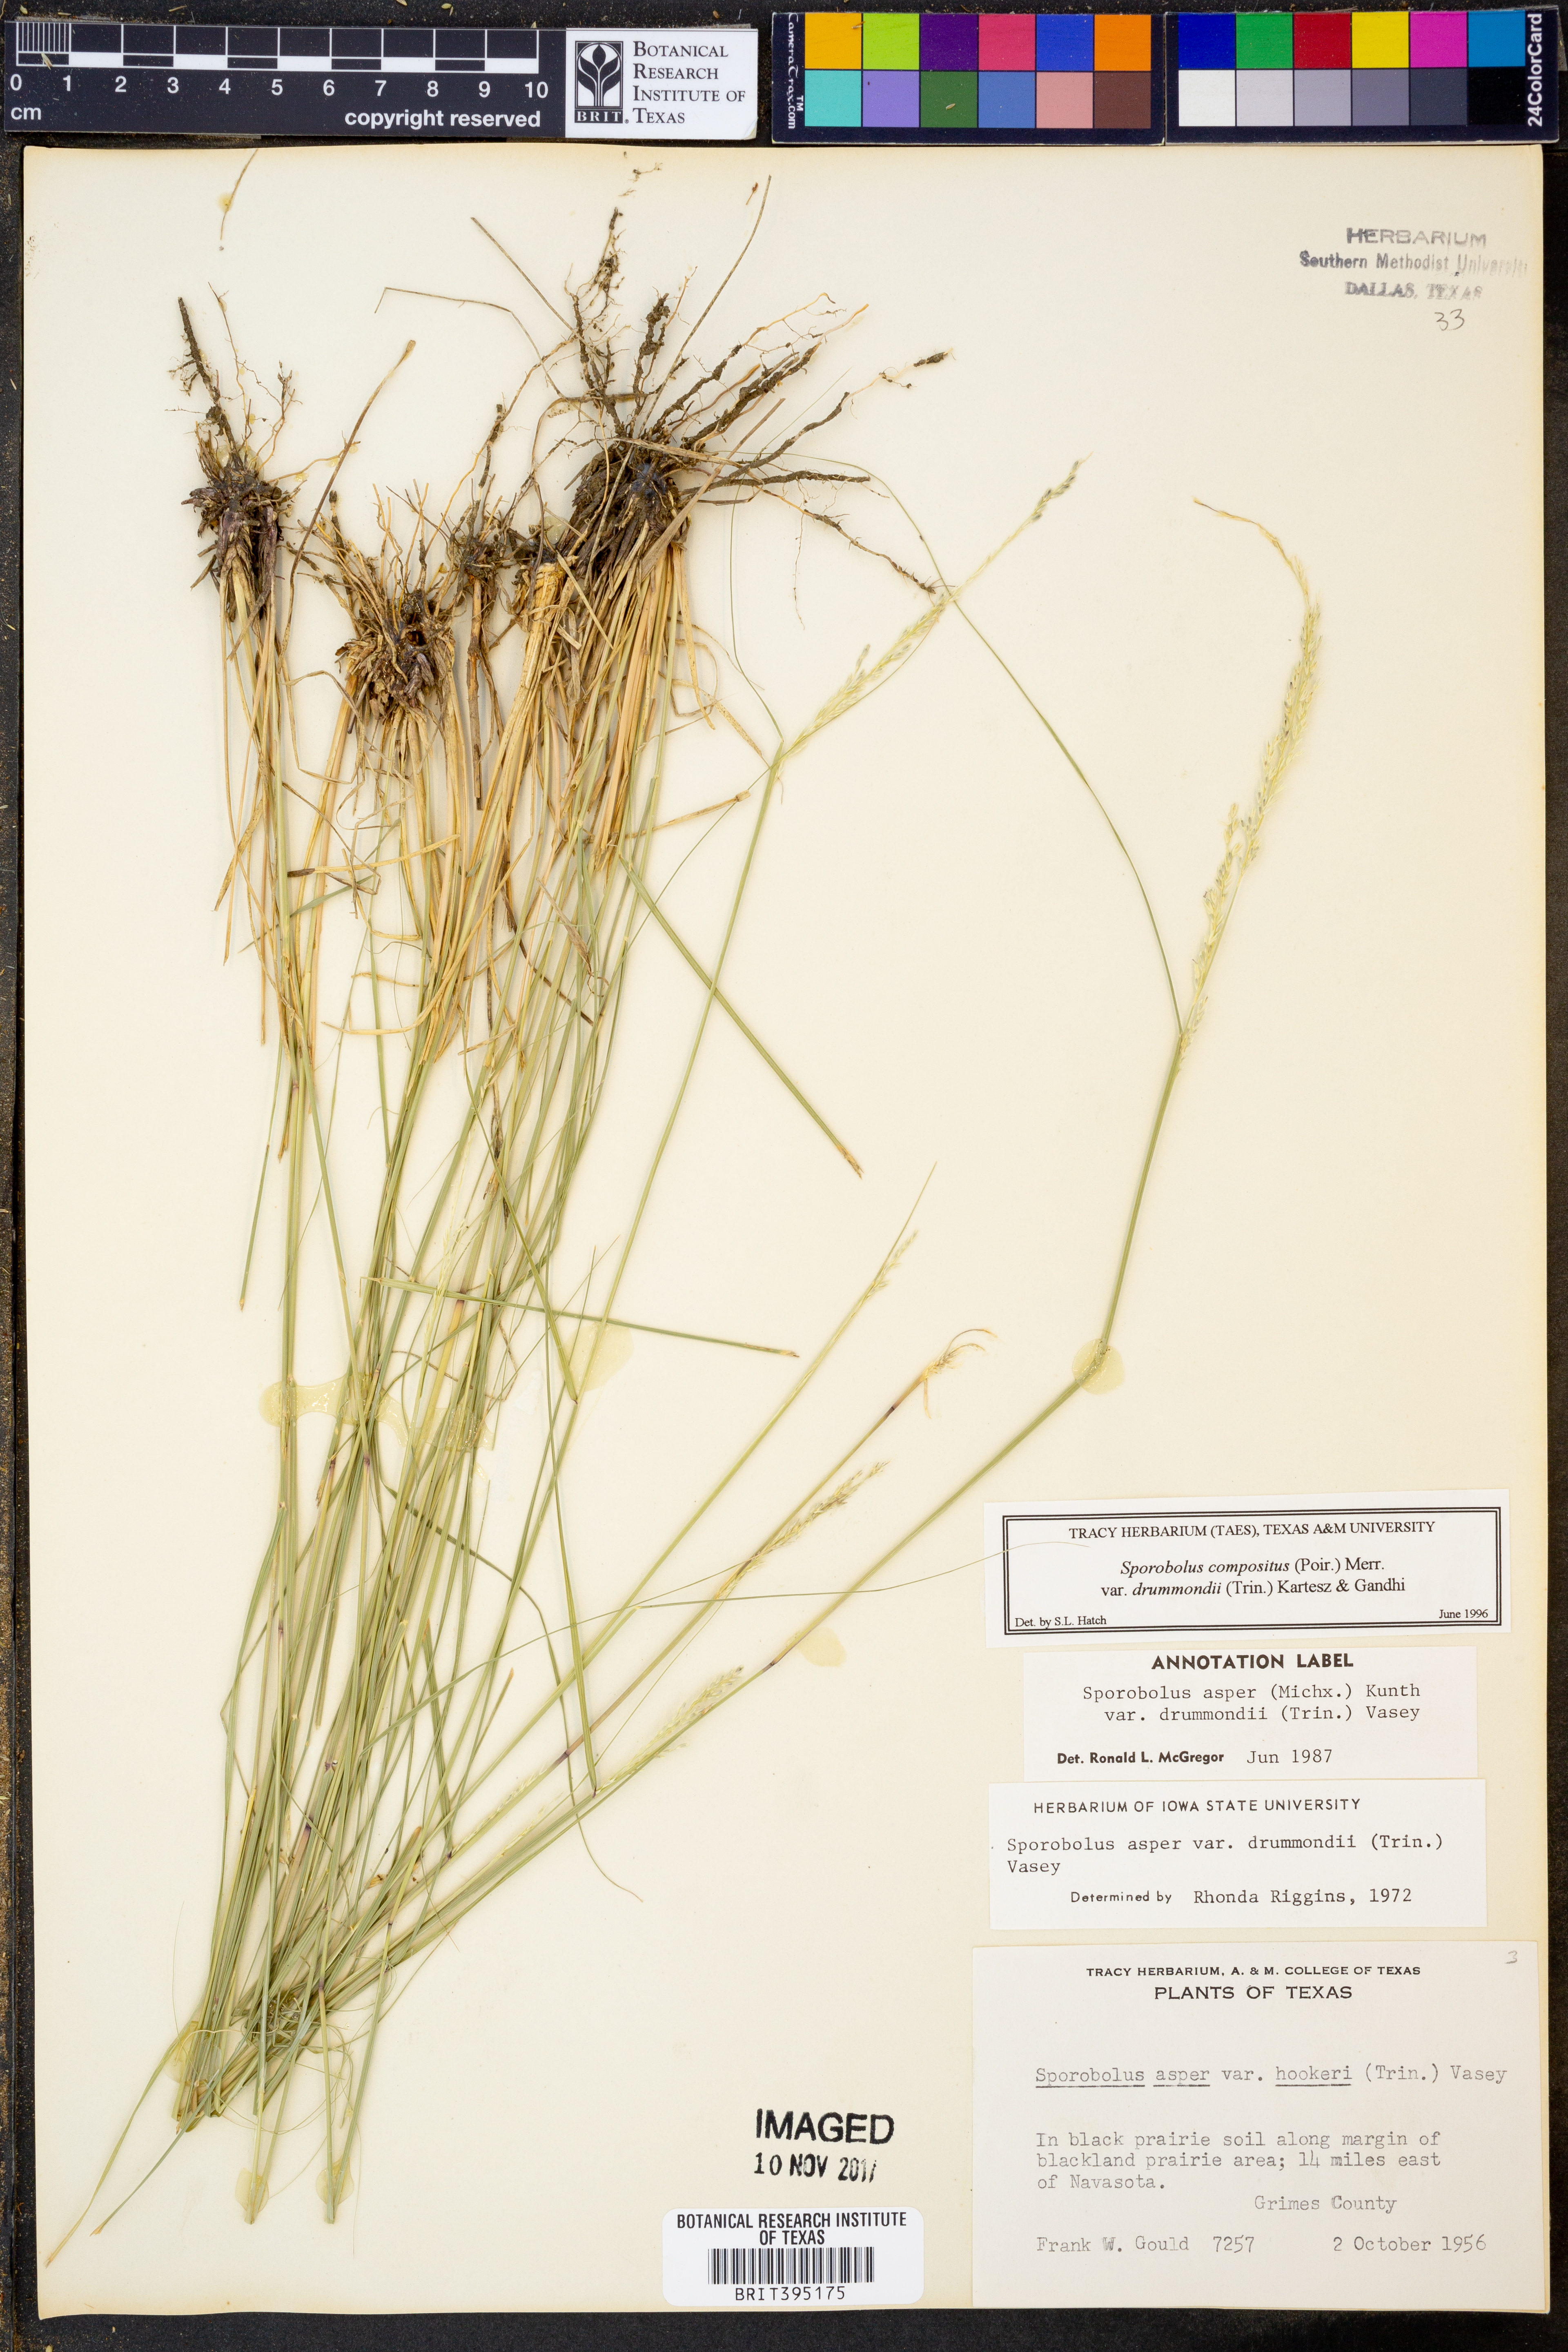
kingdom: Plantae
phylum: Tracheophyta
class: Liliopsida
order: Poales
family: Poaceae
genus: Sporobolus
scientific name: Sporobolus compositus
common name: Rough dropseed
